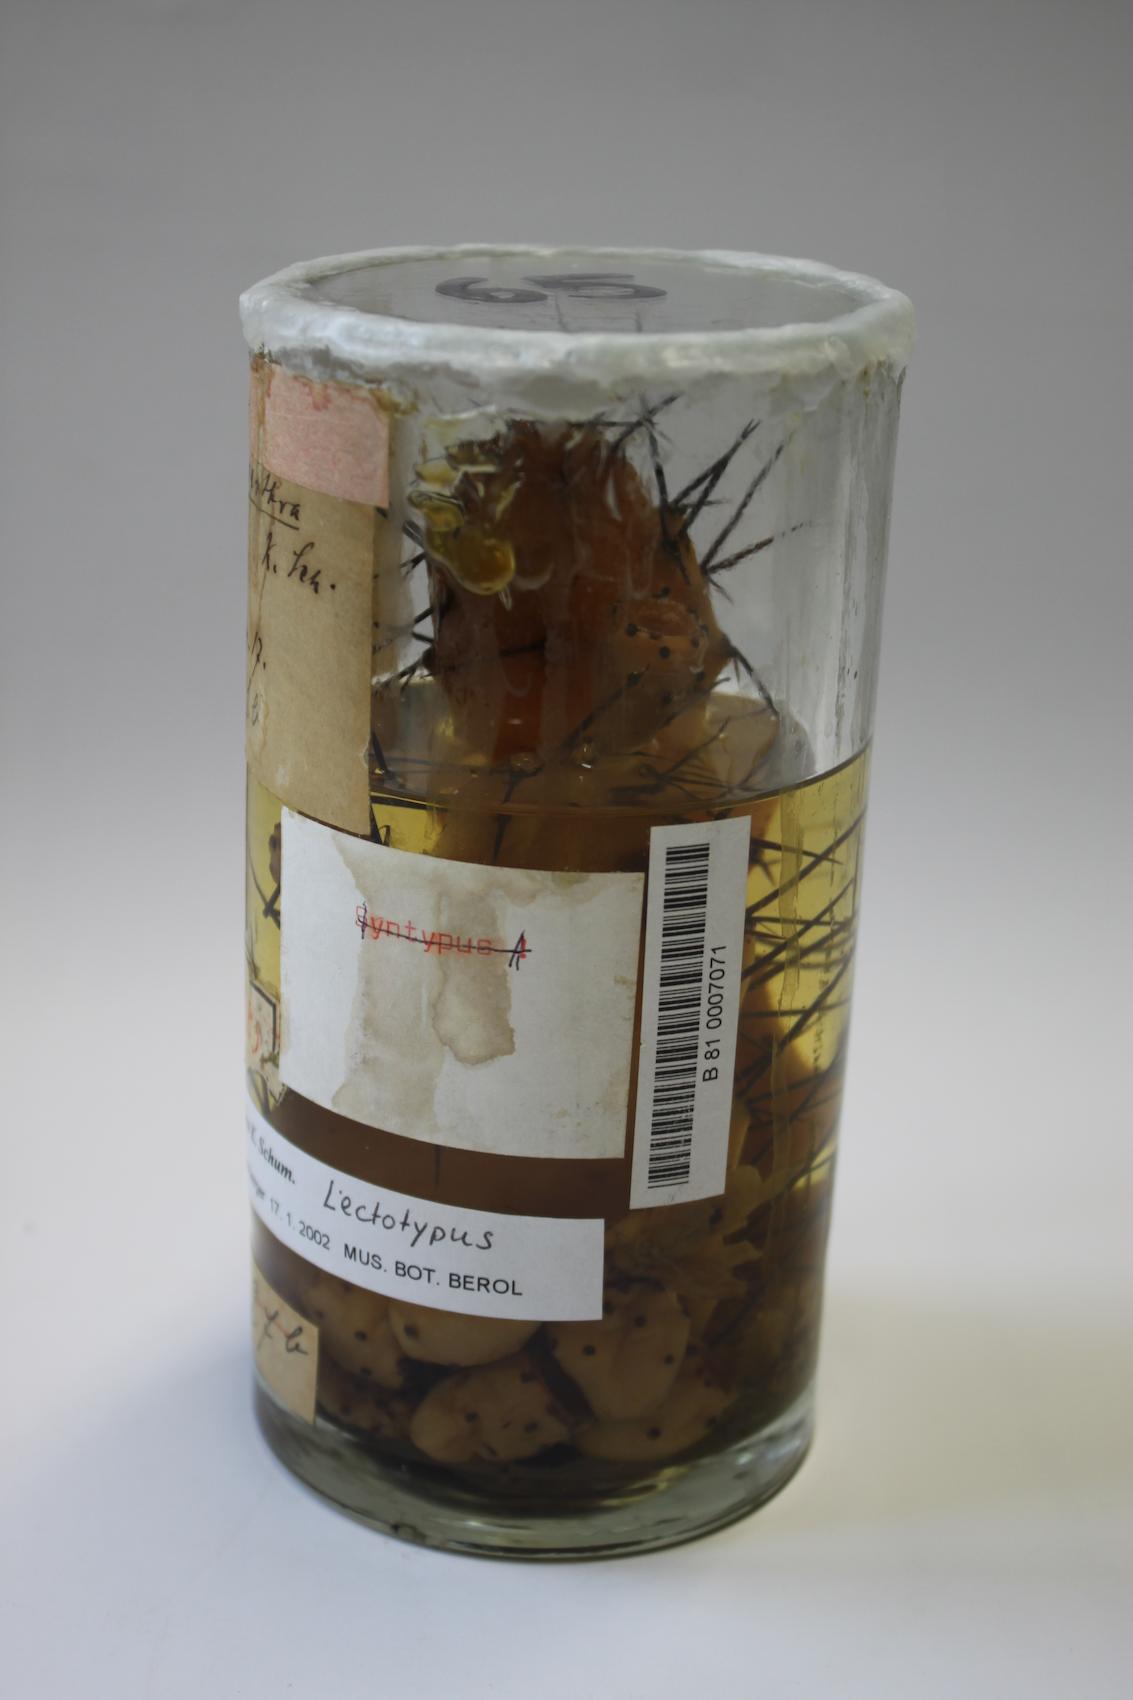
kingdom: Plantae
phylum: Tracheophyta
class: Magnoliopsida
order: Caryophyllales
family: Cactaceae
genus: Opuntia
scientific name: Opuntia stenarthra
